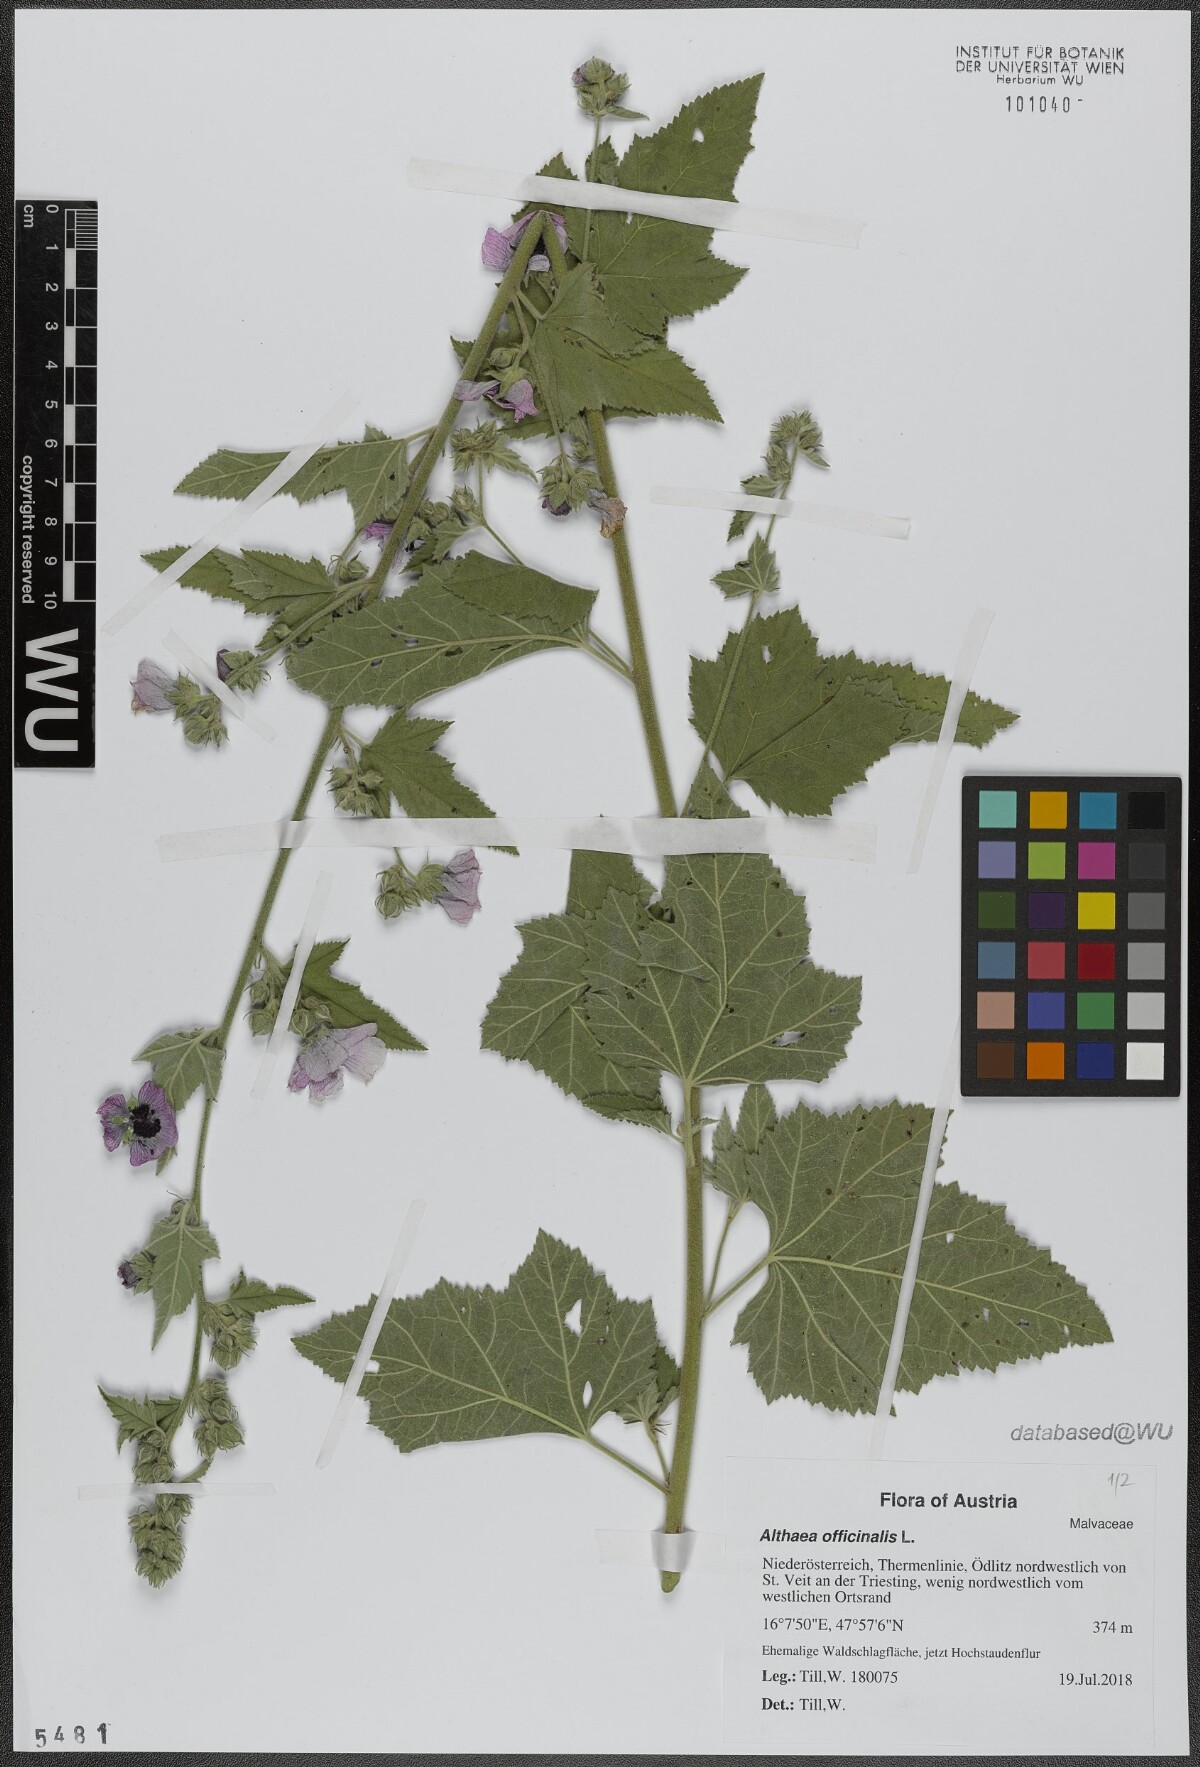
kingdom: Plantae
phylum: Tracheophyta
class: Magnoliopsida
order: Malvales
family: Malvaceae
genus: Althaea
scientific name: Althaea officinalis
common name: Marsh-mallow
